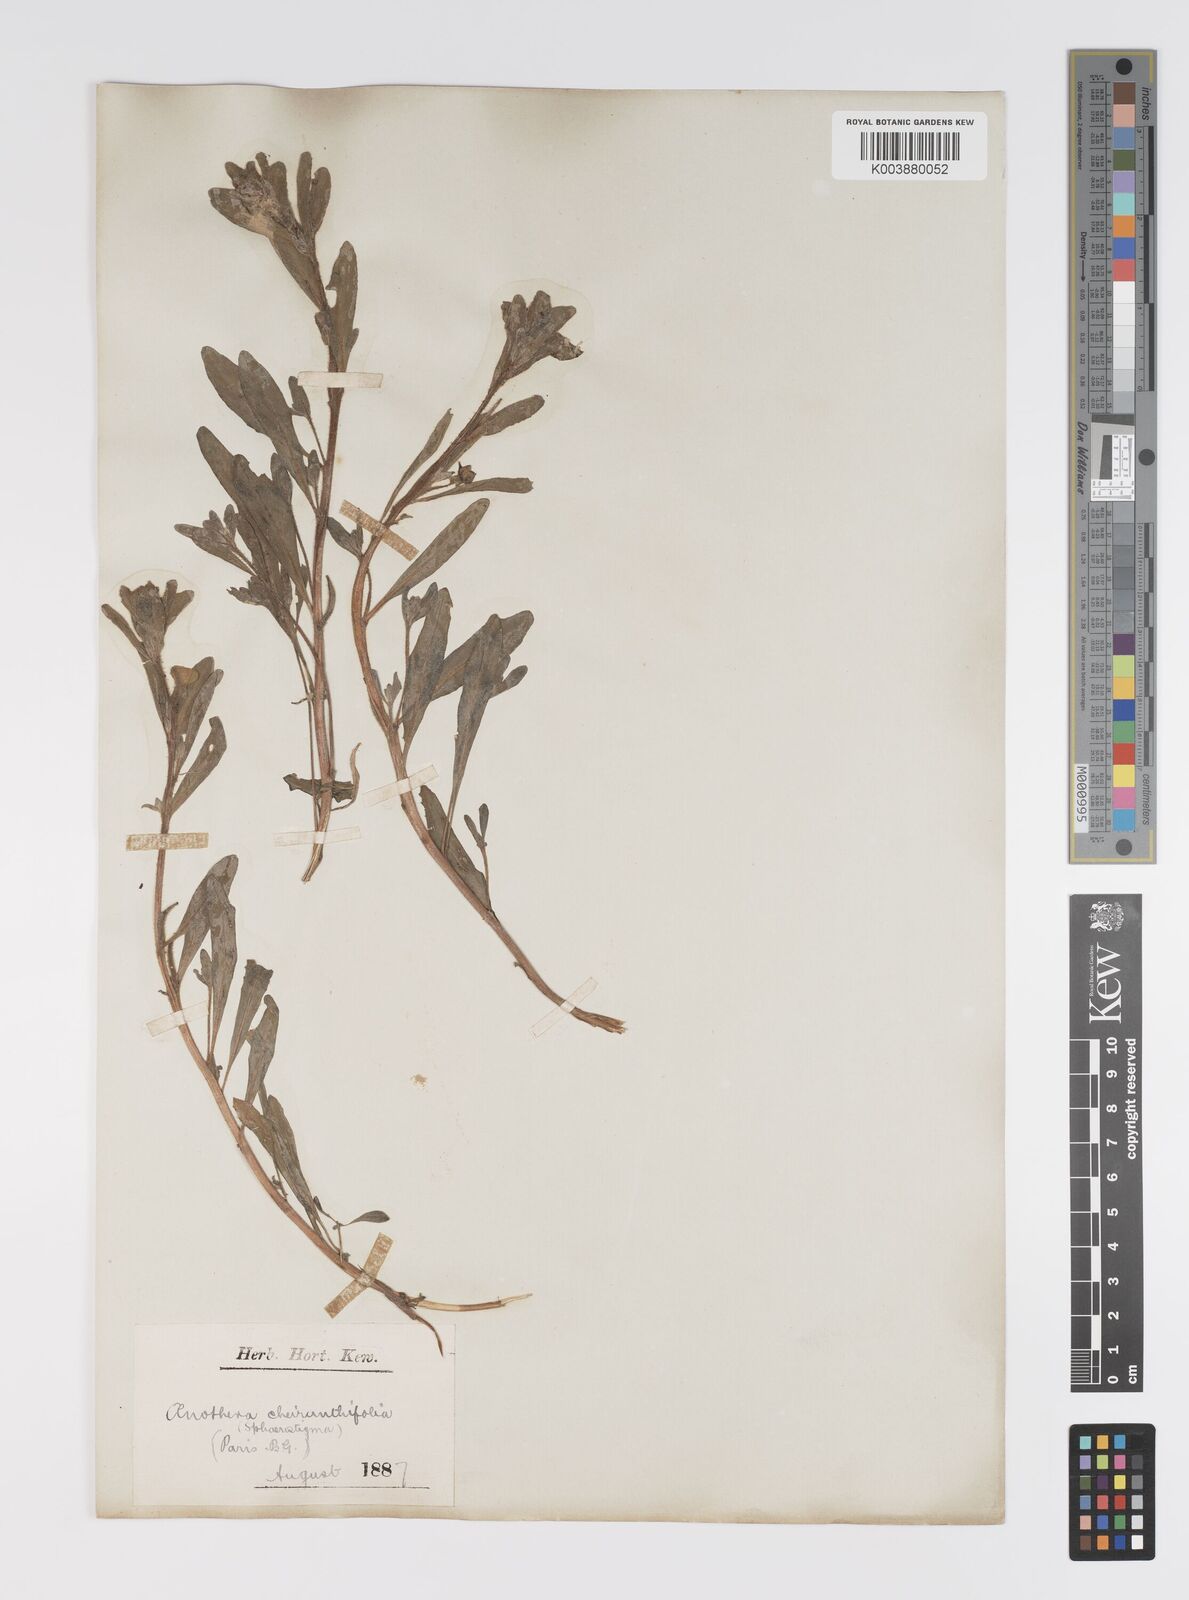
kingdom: Plantae
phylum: Tracheophyta
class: Magnoliopsida
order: Myrtales
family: Onagraceae
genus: Camissoniopsis
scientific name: Camissoniopsis cheiranthifolia
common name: Beach suncup
